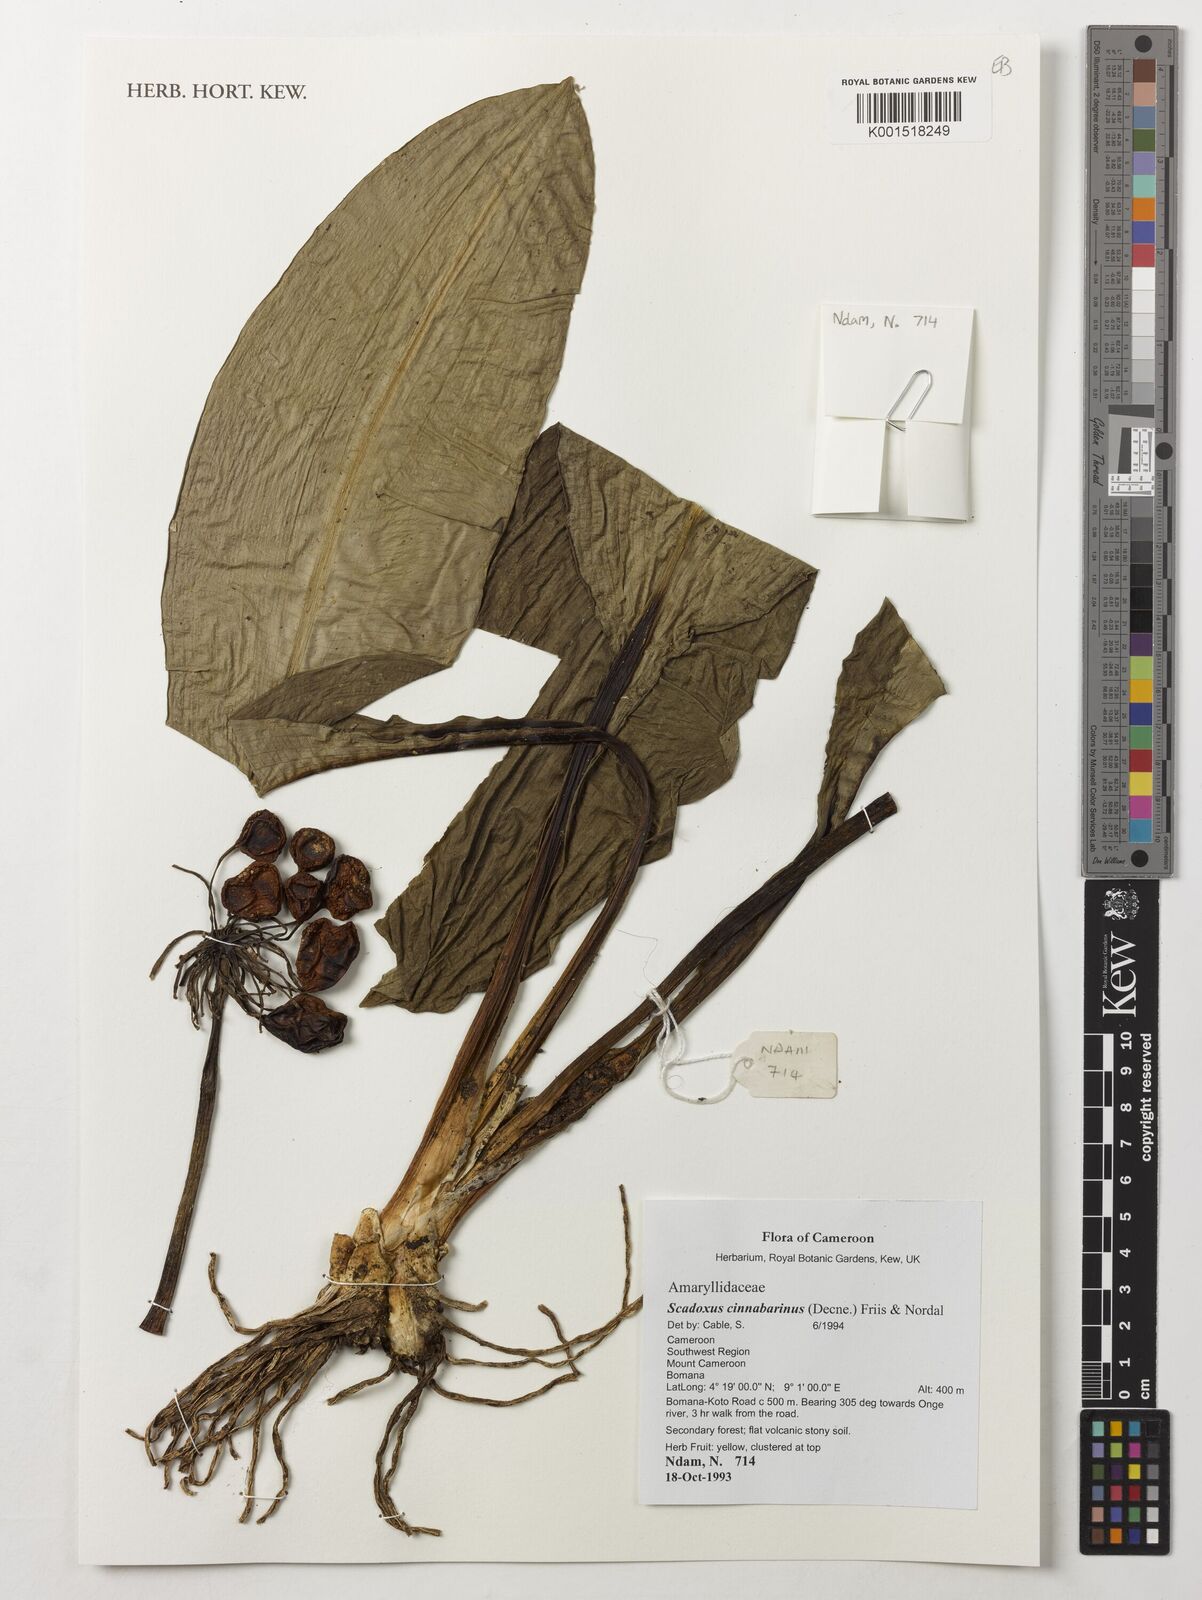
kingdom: Plantae
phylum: Tracheophyta
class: Liliopsida
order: Asparagales
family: Amaryllidaceae
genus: Scadoxus
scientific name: Scadoxus cinnabarinus
